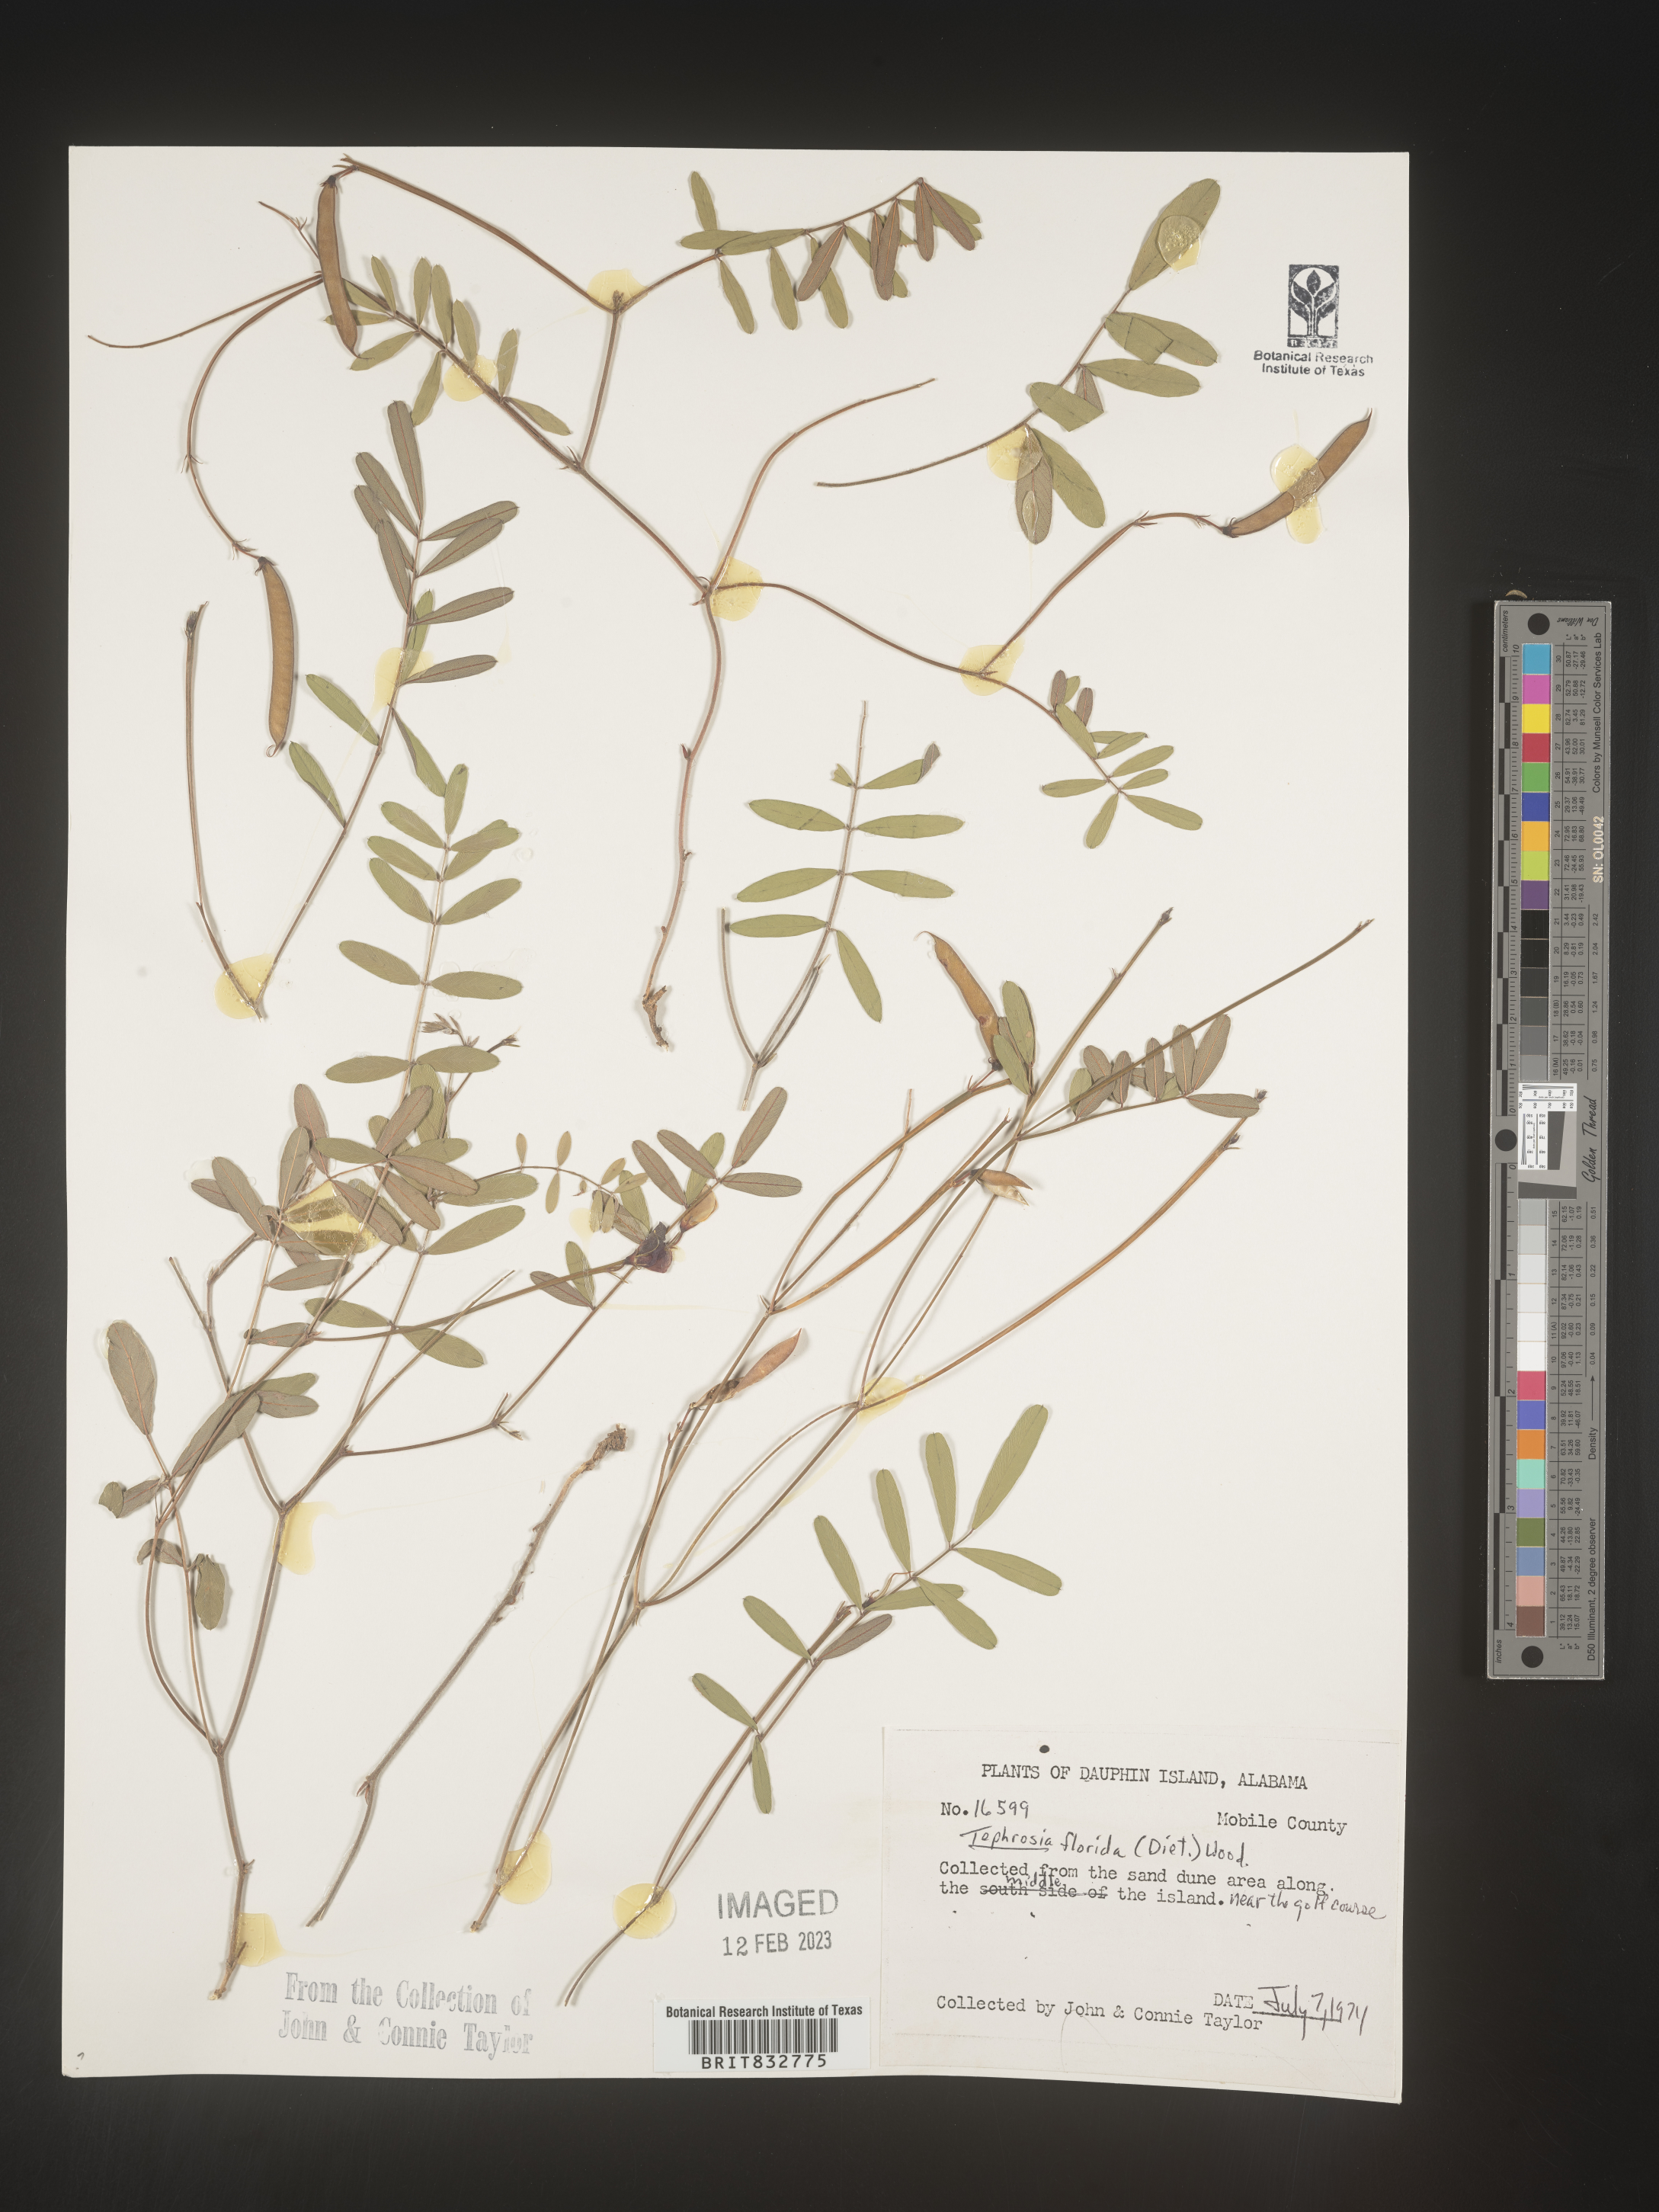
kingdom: Plantae
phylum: Tracheophyta
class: Magnoliopsida
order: Fabales
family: Fabaceae
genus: Tephrosia
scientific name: Tephrosia florida
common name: Florida hoary-pea
